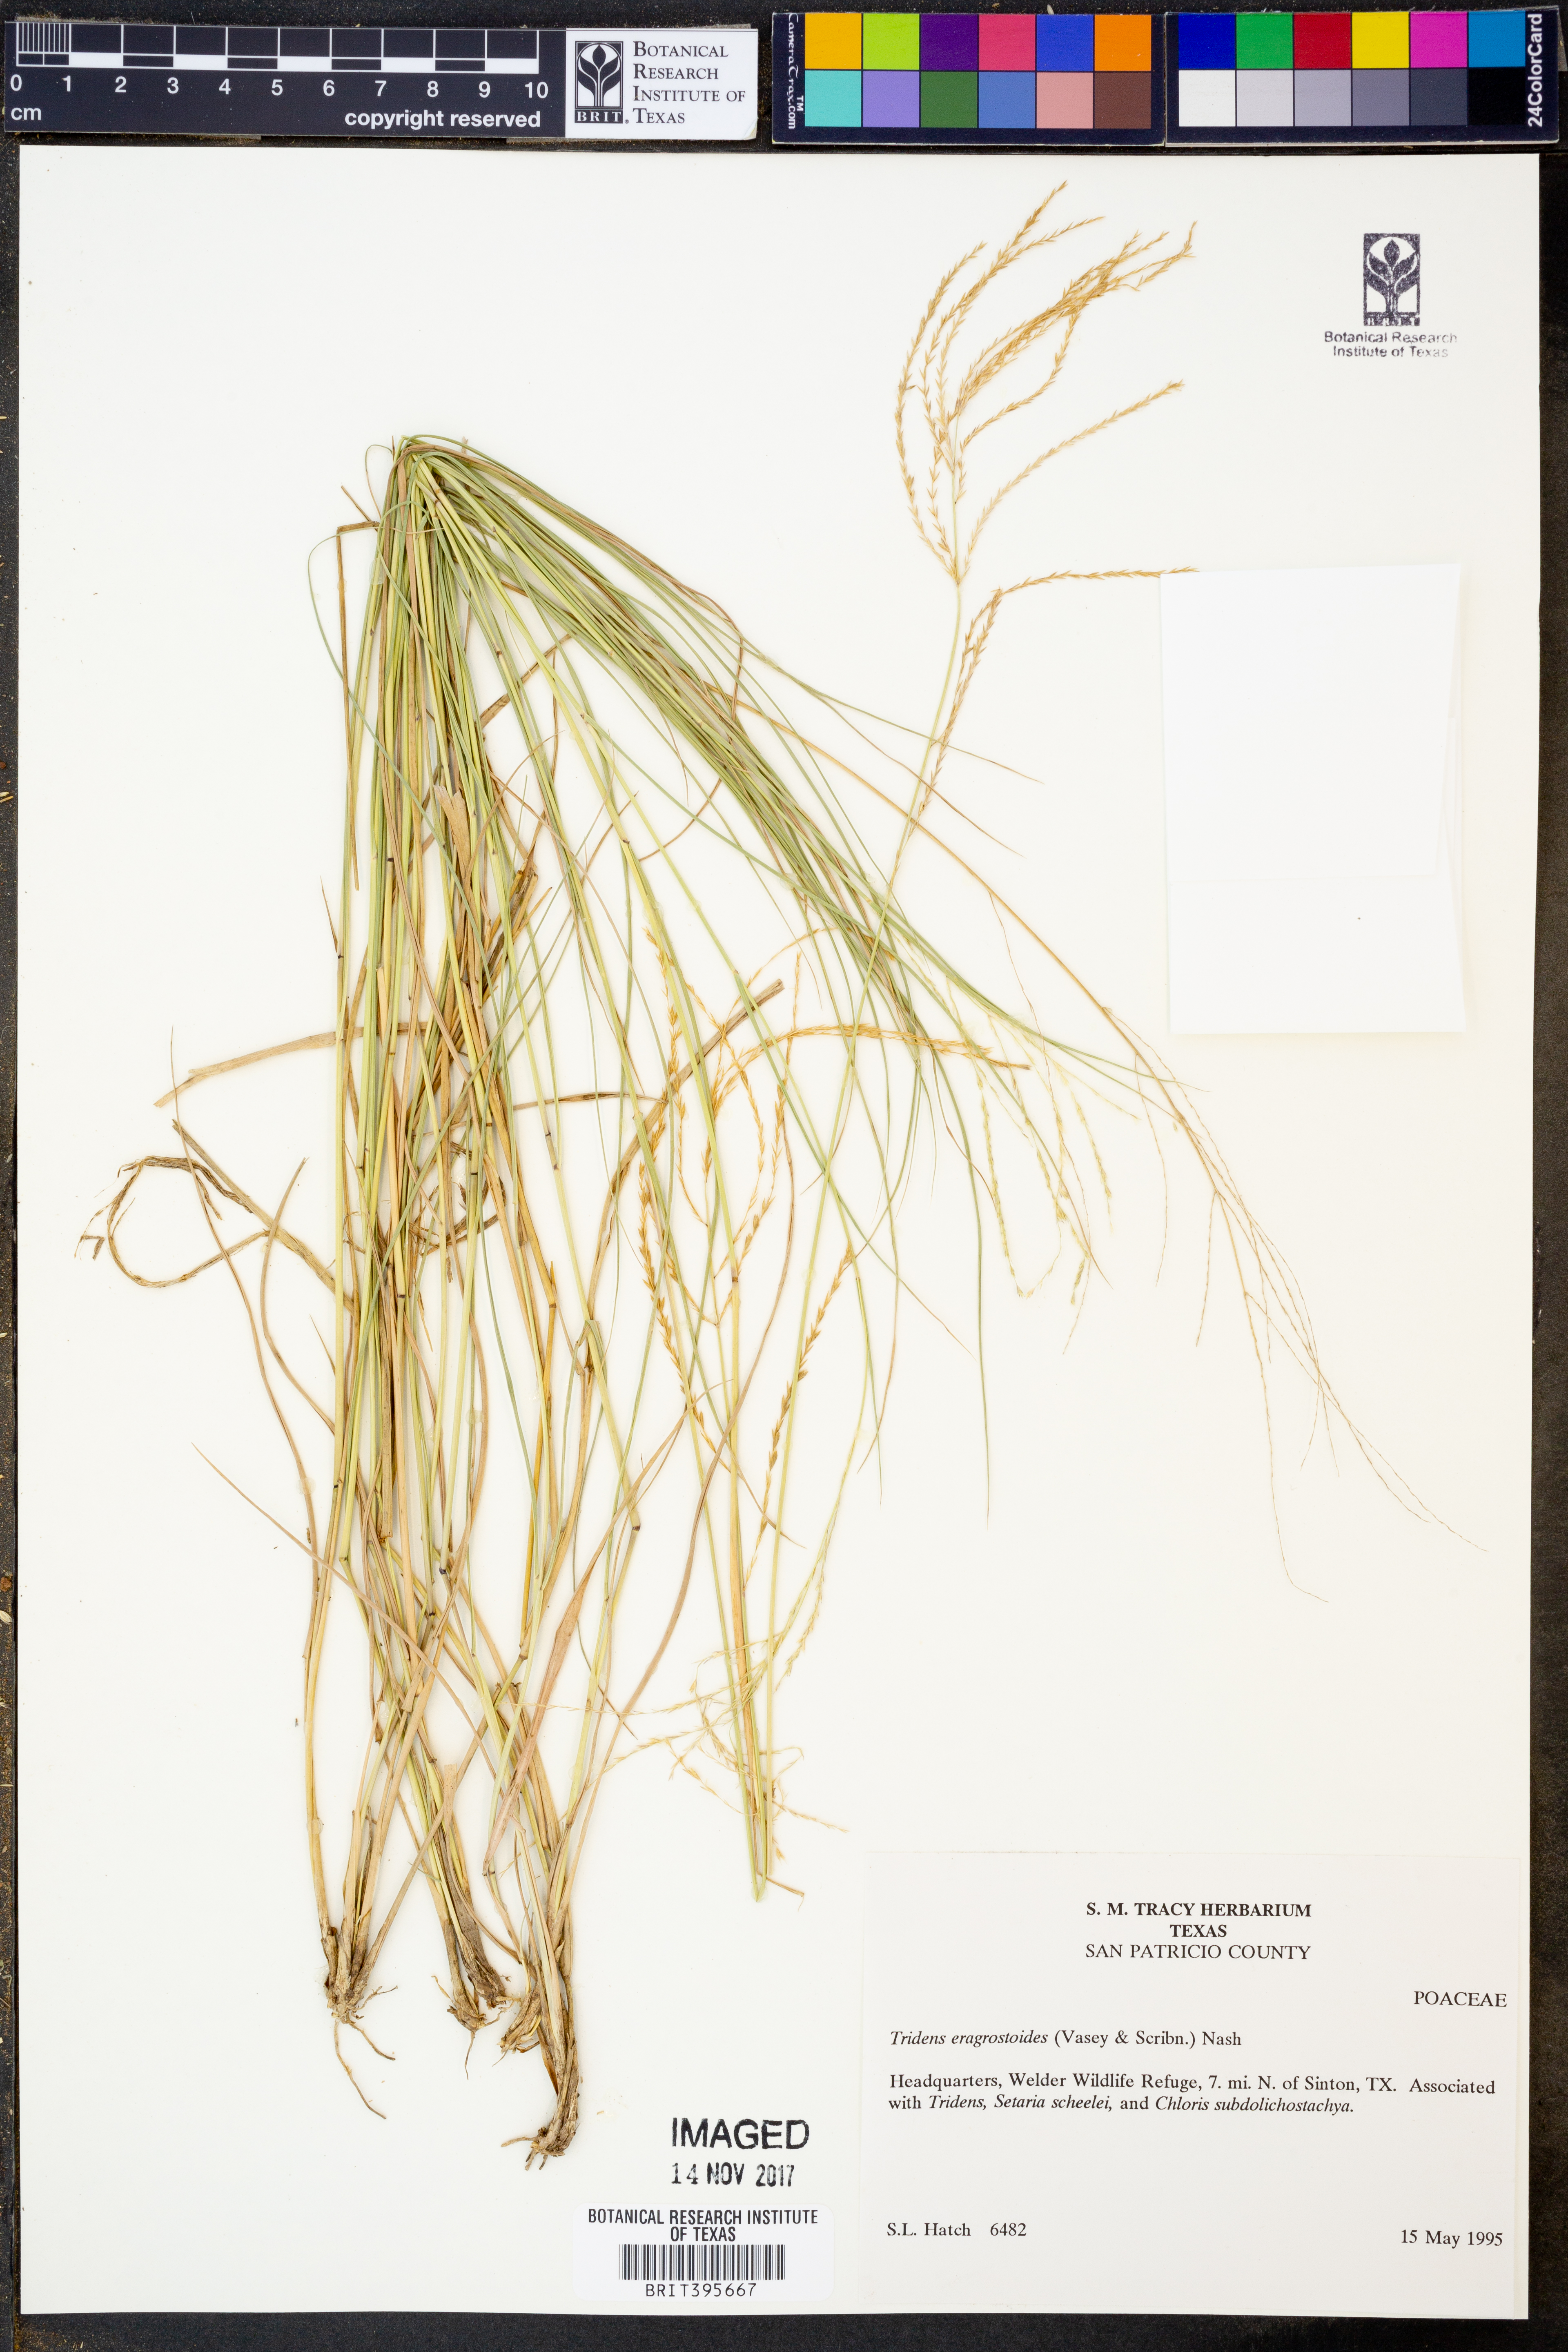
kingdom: Plantae
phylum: Tracheophyta
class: Liliopsida
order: Poales
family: Poaceae
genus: Triplasiella
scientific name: Triplasiella eragrostoides
